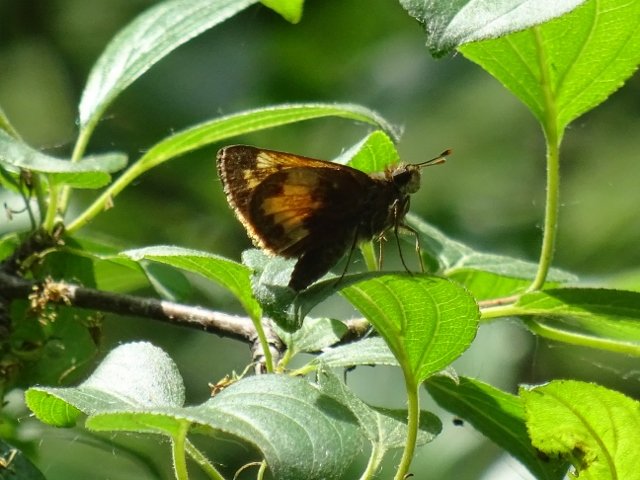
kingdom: Animalia
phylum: Arthropoda
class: Insecta
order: Lepidoptera
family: Hesperiidae
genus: Lon
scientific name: Lon hobomok
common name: Hobomok Skipper
